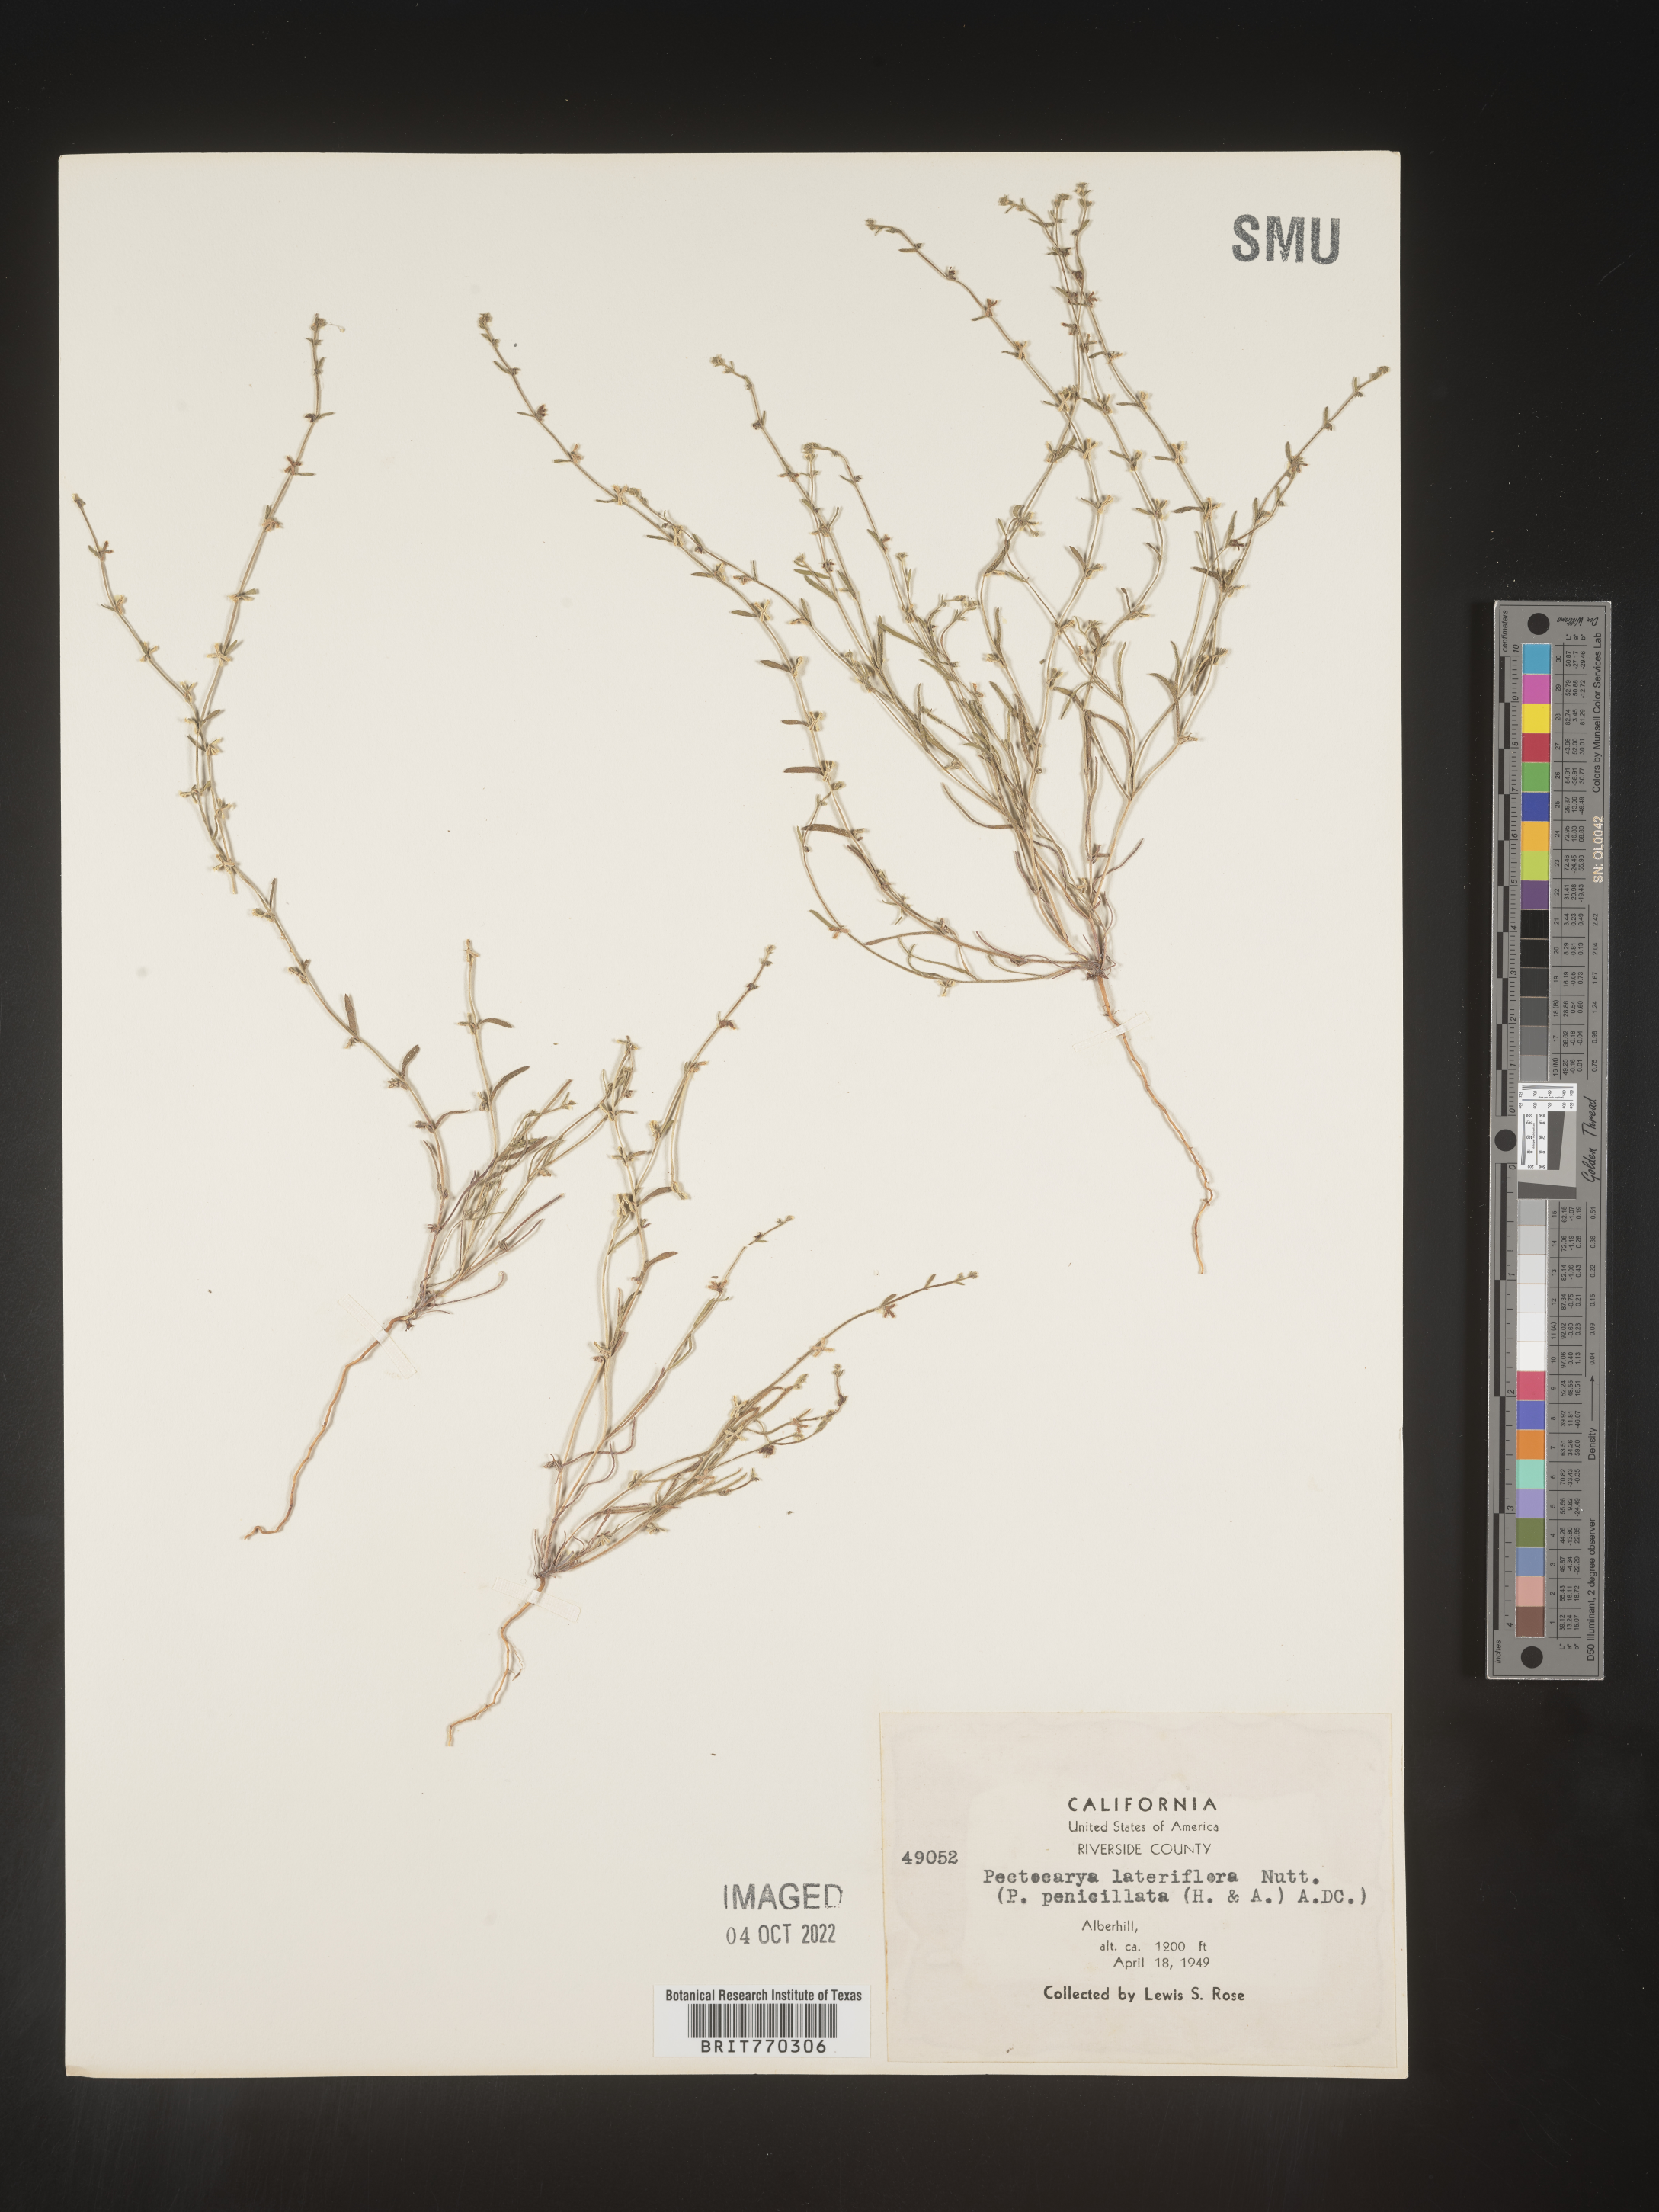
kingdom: Plantae
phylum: Tracheophyta
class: Magnoliopsida
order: Boraginales
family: Boraginaceae
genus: Pectocarya
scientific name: Pectocarya
